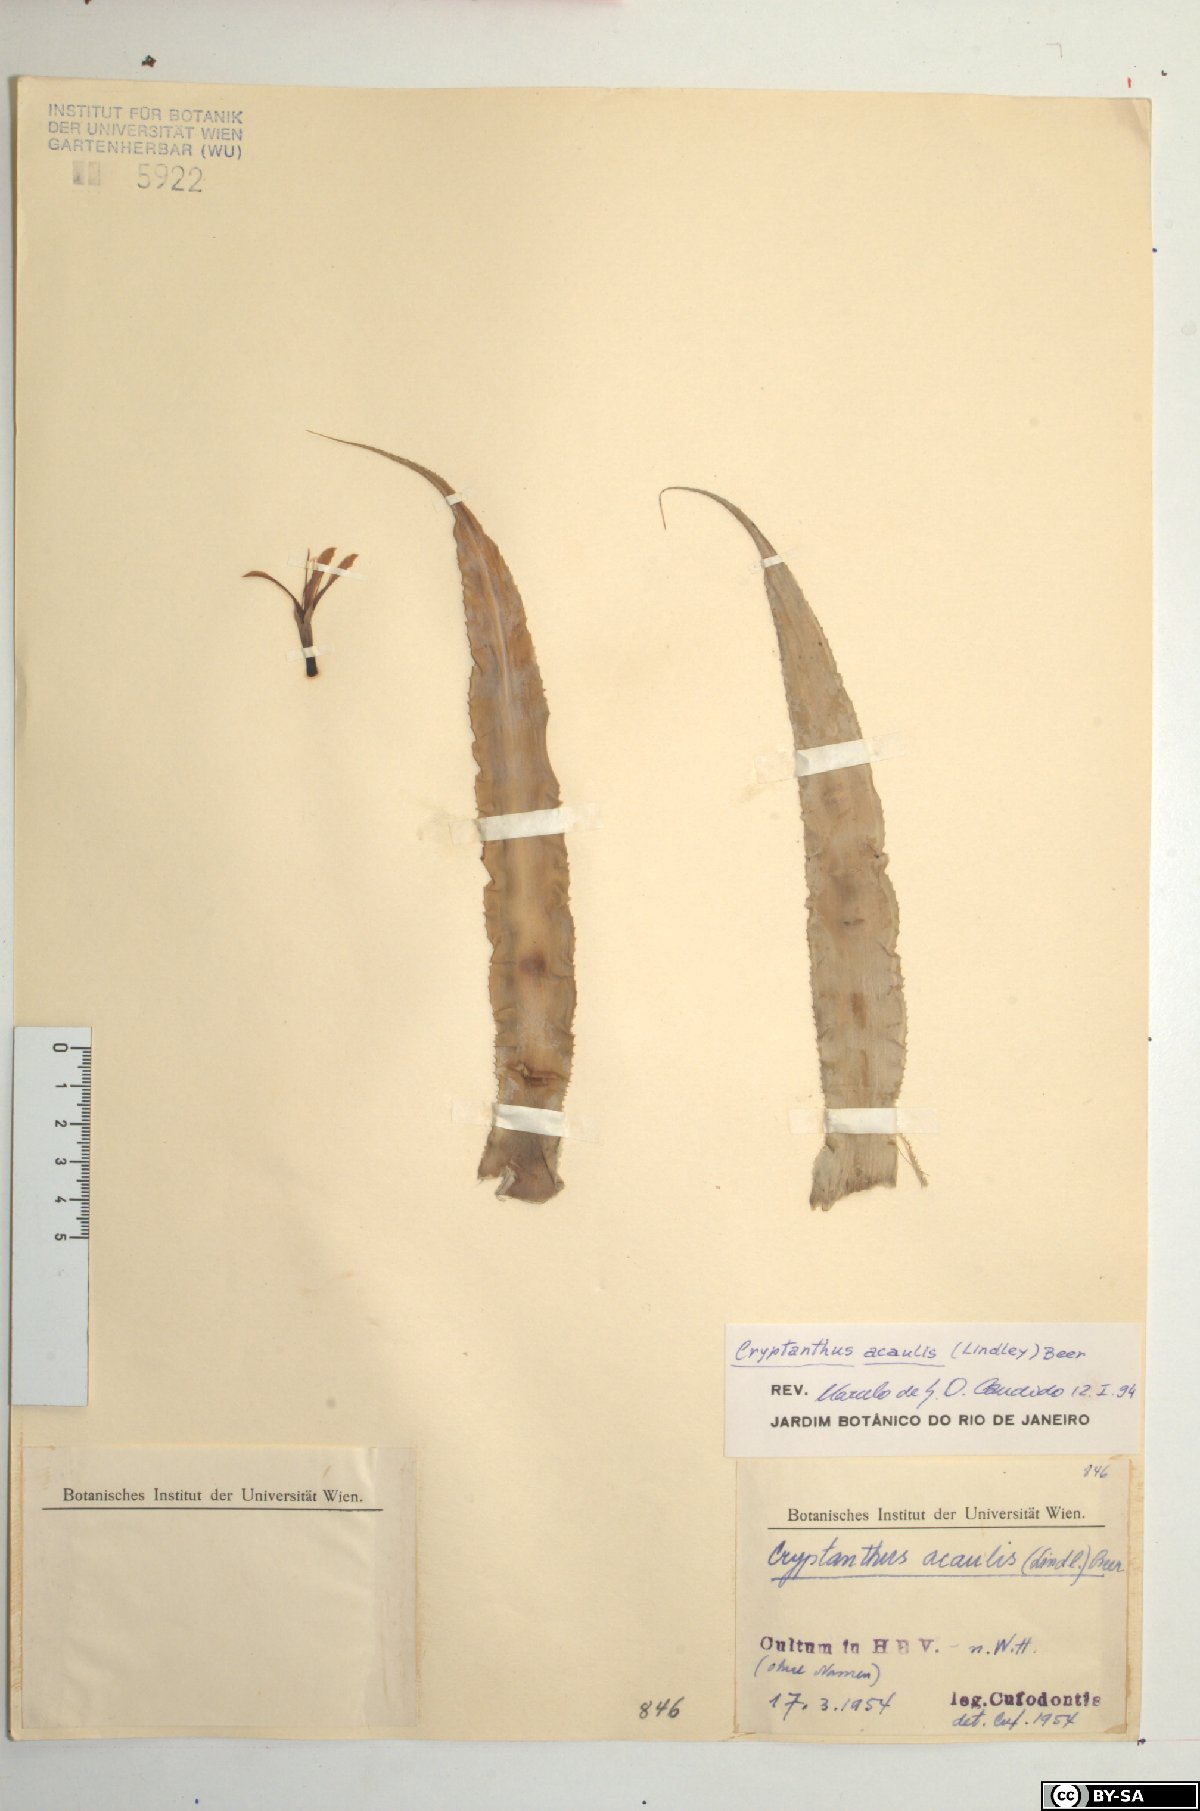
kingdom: Plantae
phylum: Tracheophyta
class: Liliopsida
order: Poales
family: Bromeliaceae
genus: Cryptanthus
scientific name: Cryptanthus acaulis
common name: Starfishplant
